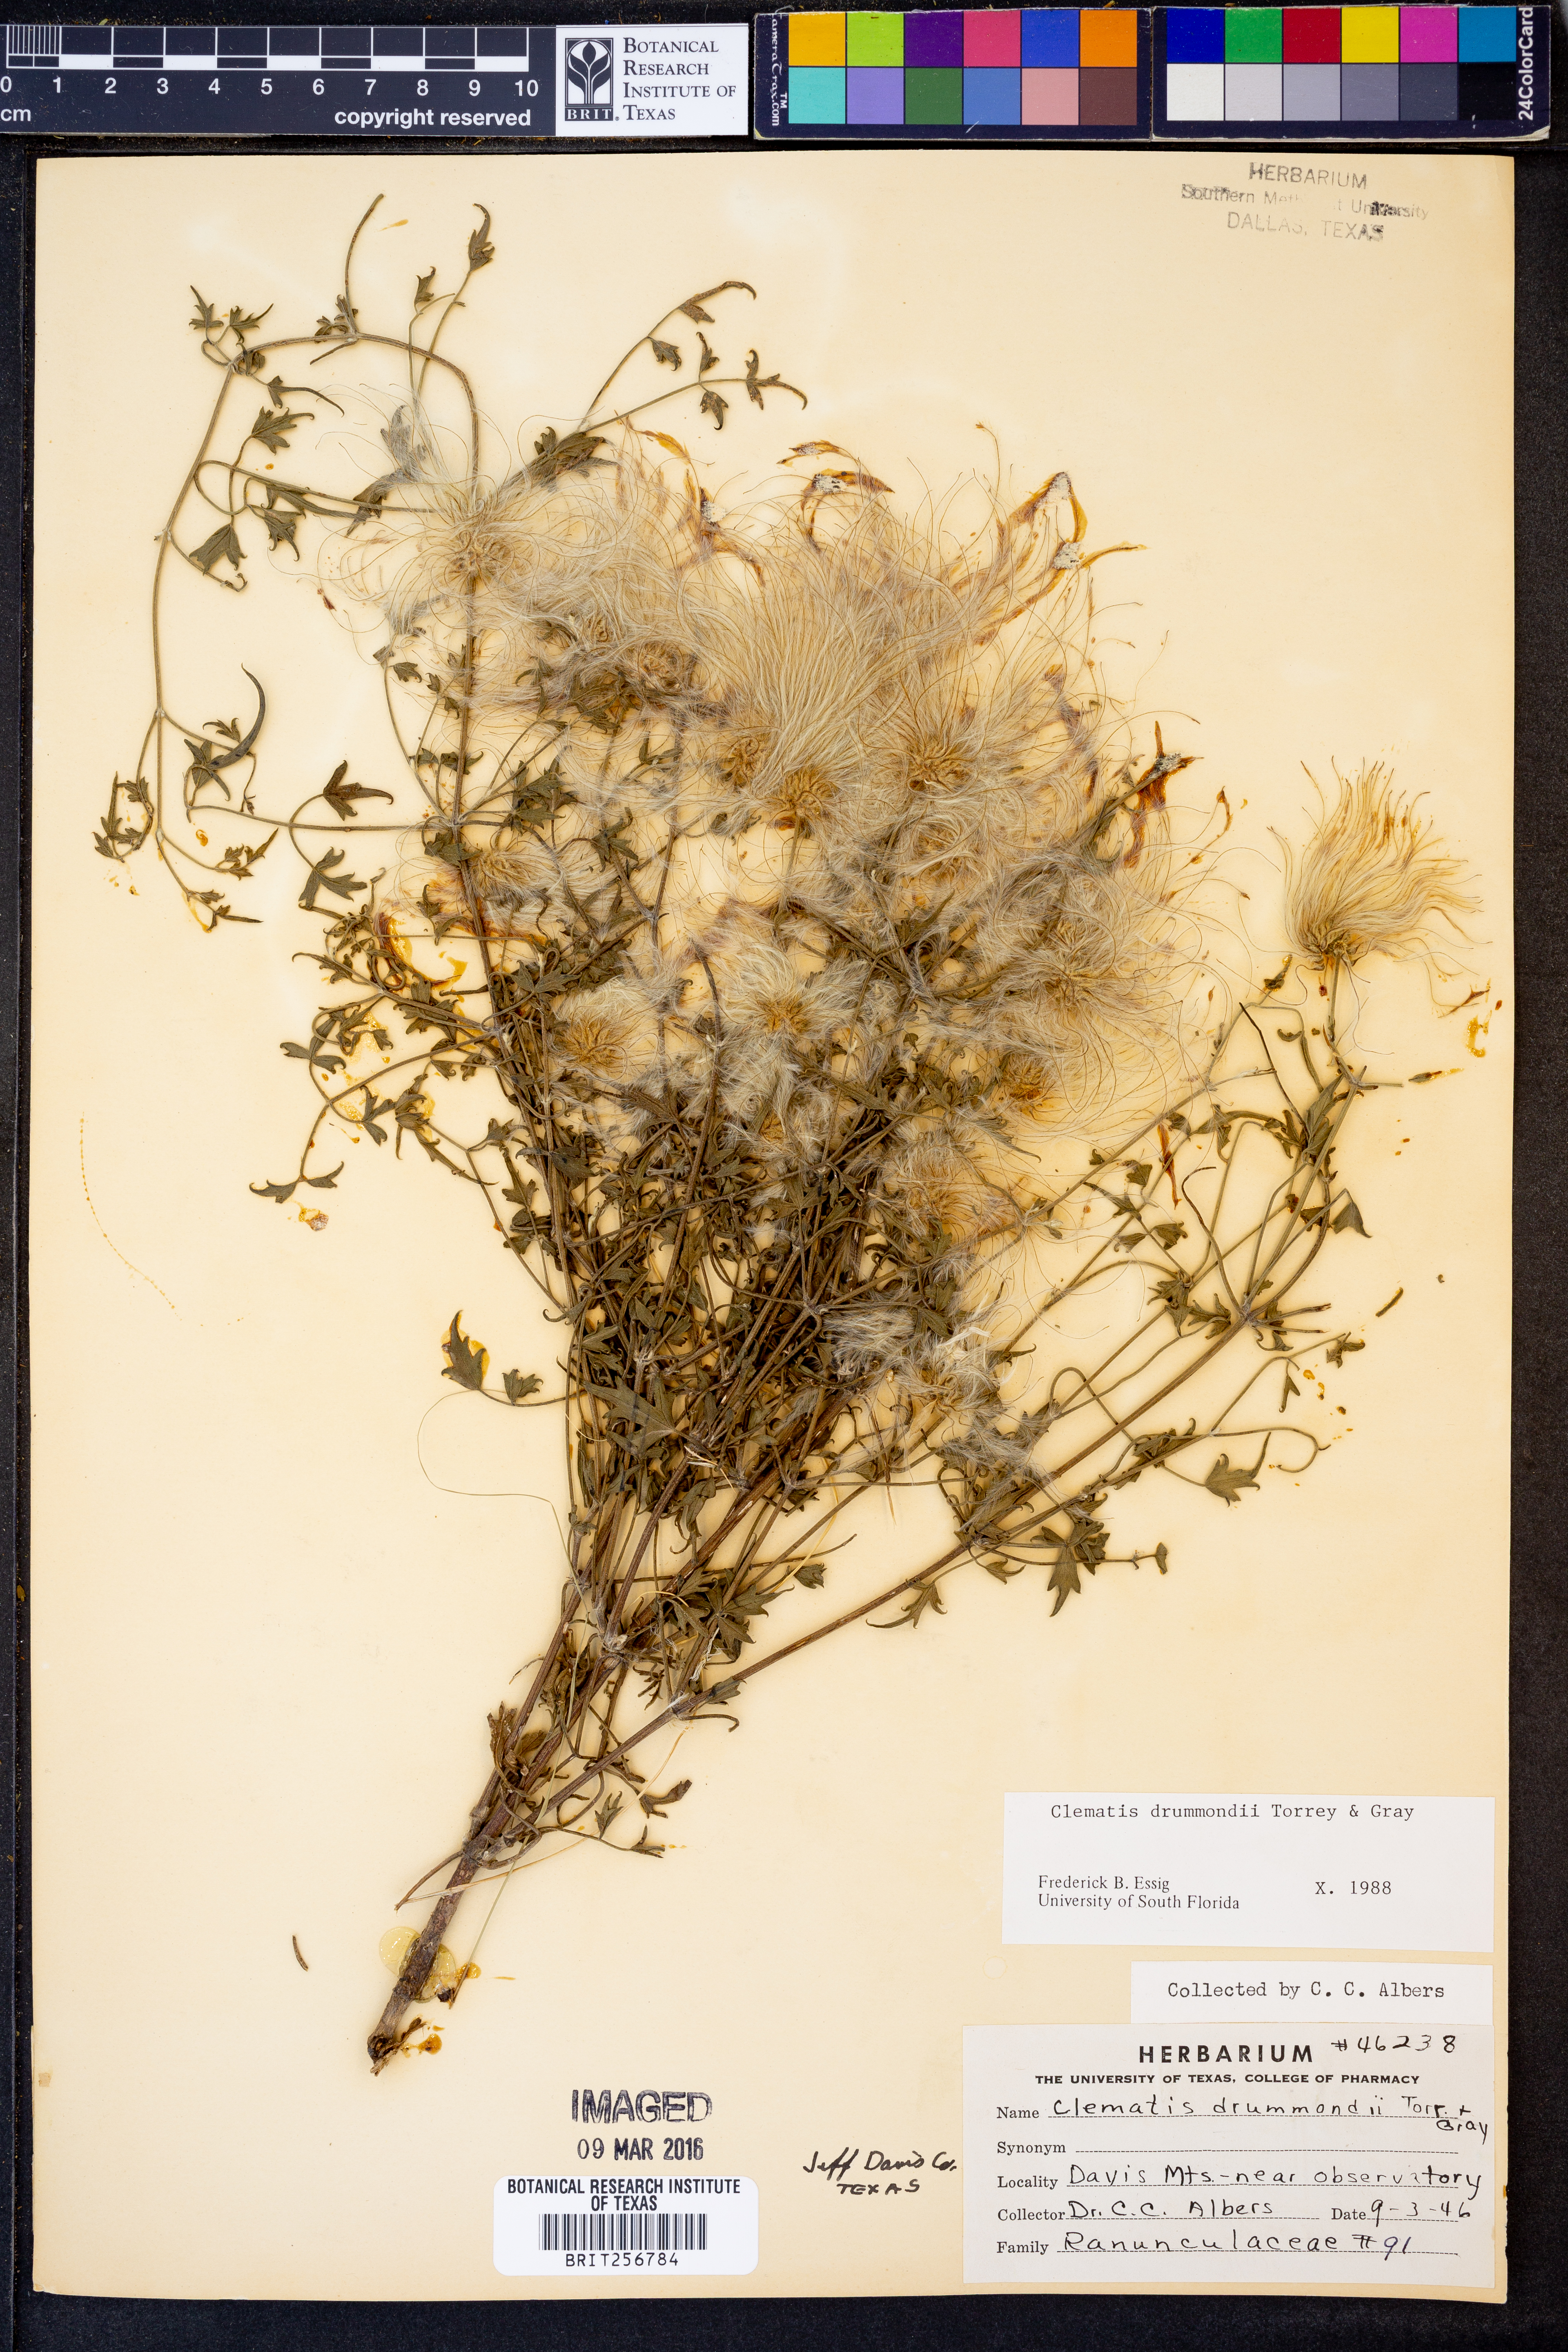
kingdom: Plantae
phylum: Tracheophyta
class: Magnoliopsida
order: Ranunculales
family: Ranunculaceae
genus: Clematis
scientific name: Clematis drummondii
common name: Texas virgin's bower
